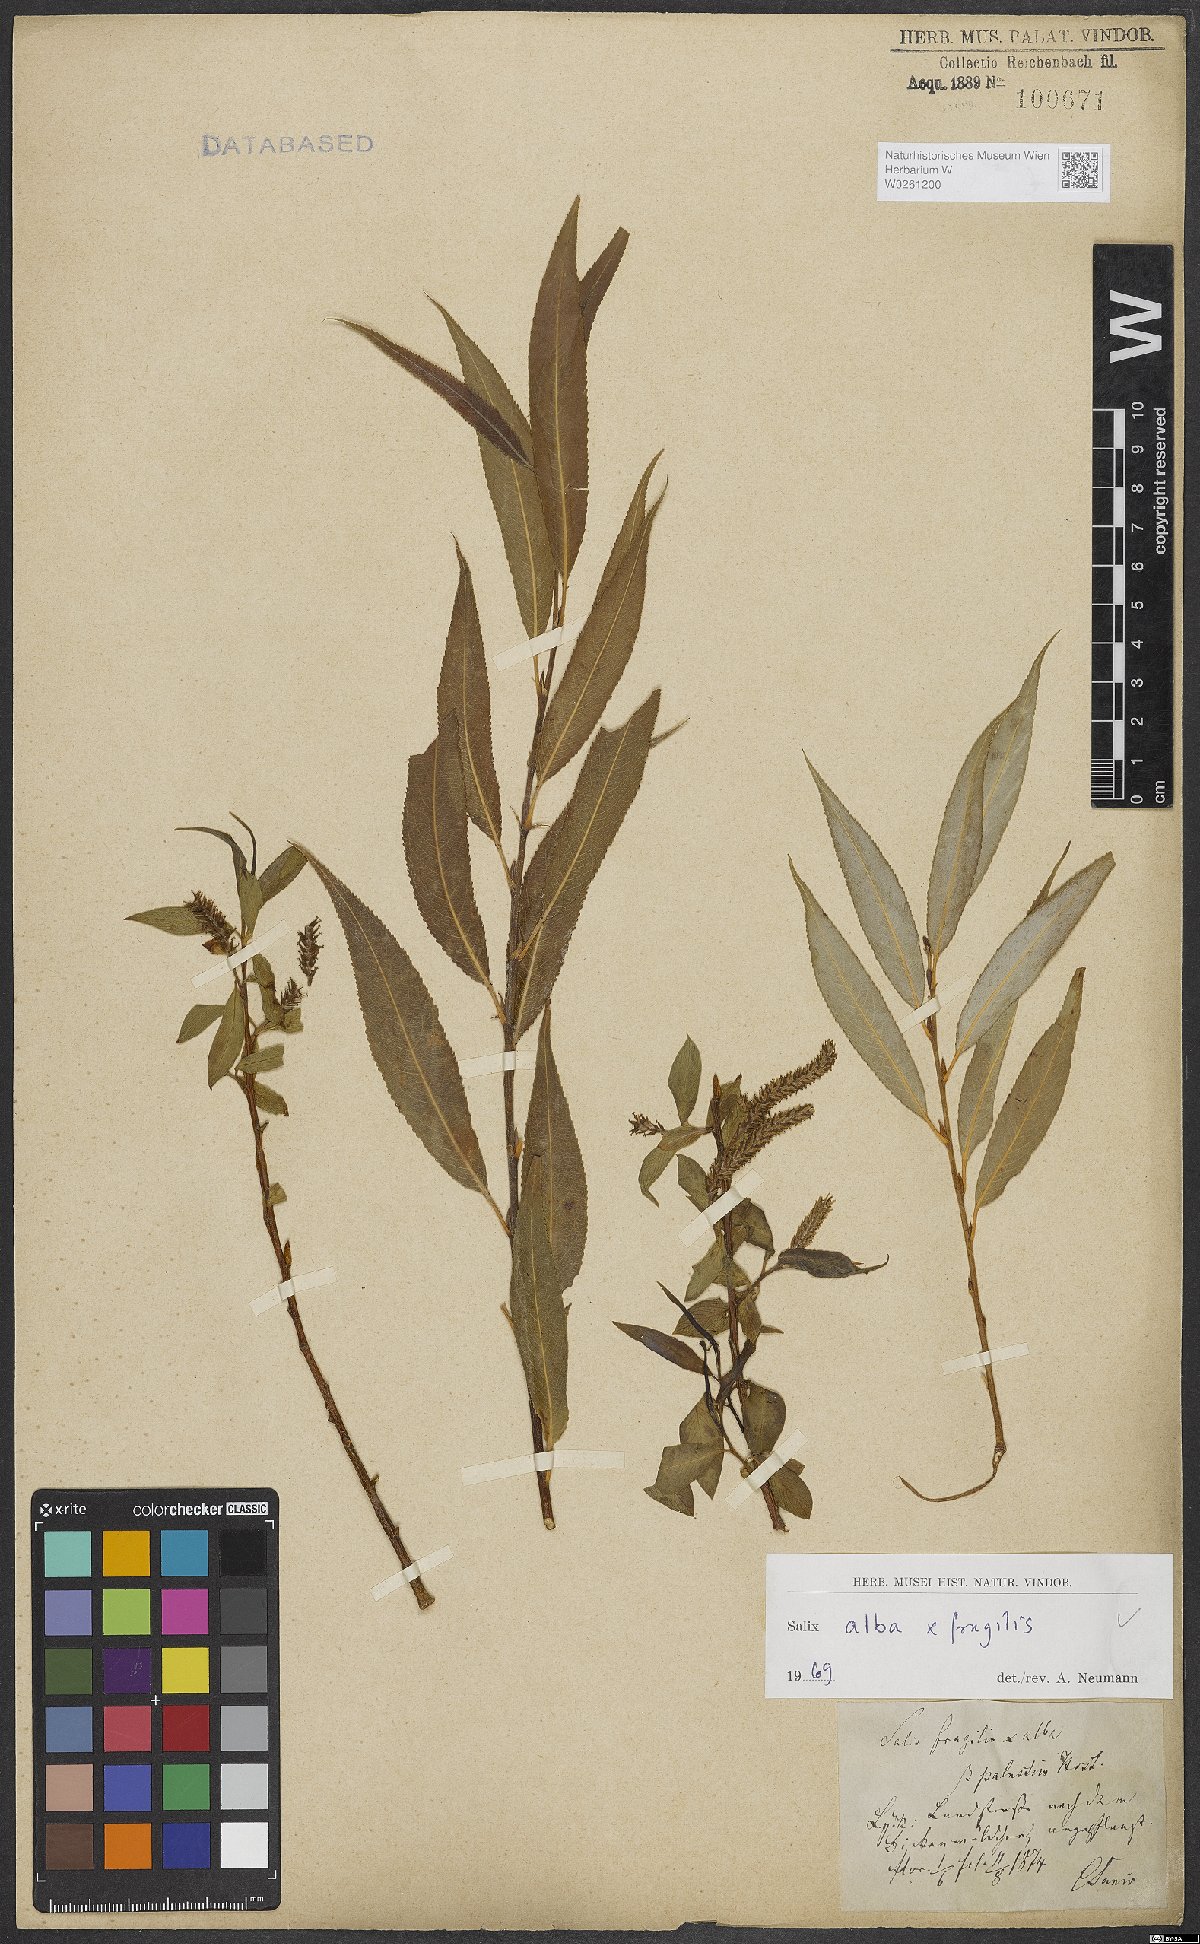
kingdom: Plantae
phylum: Tracheophyta
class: Magnoliopsida
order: Malpighiales
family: Salicaceae
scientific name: Salicaceae
